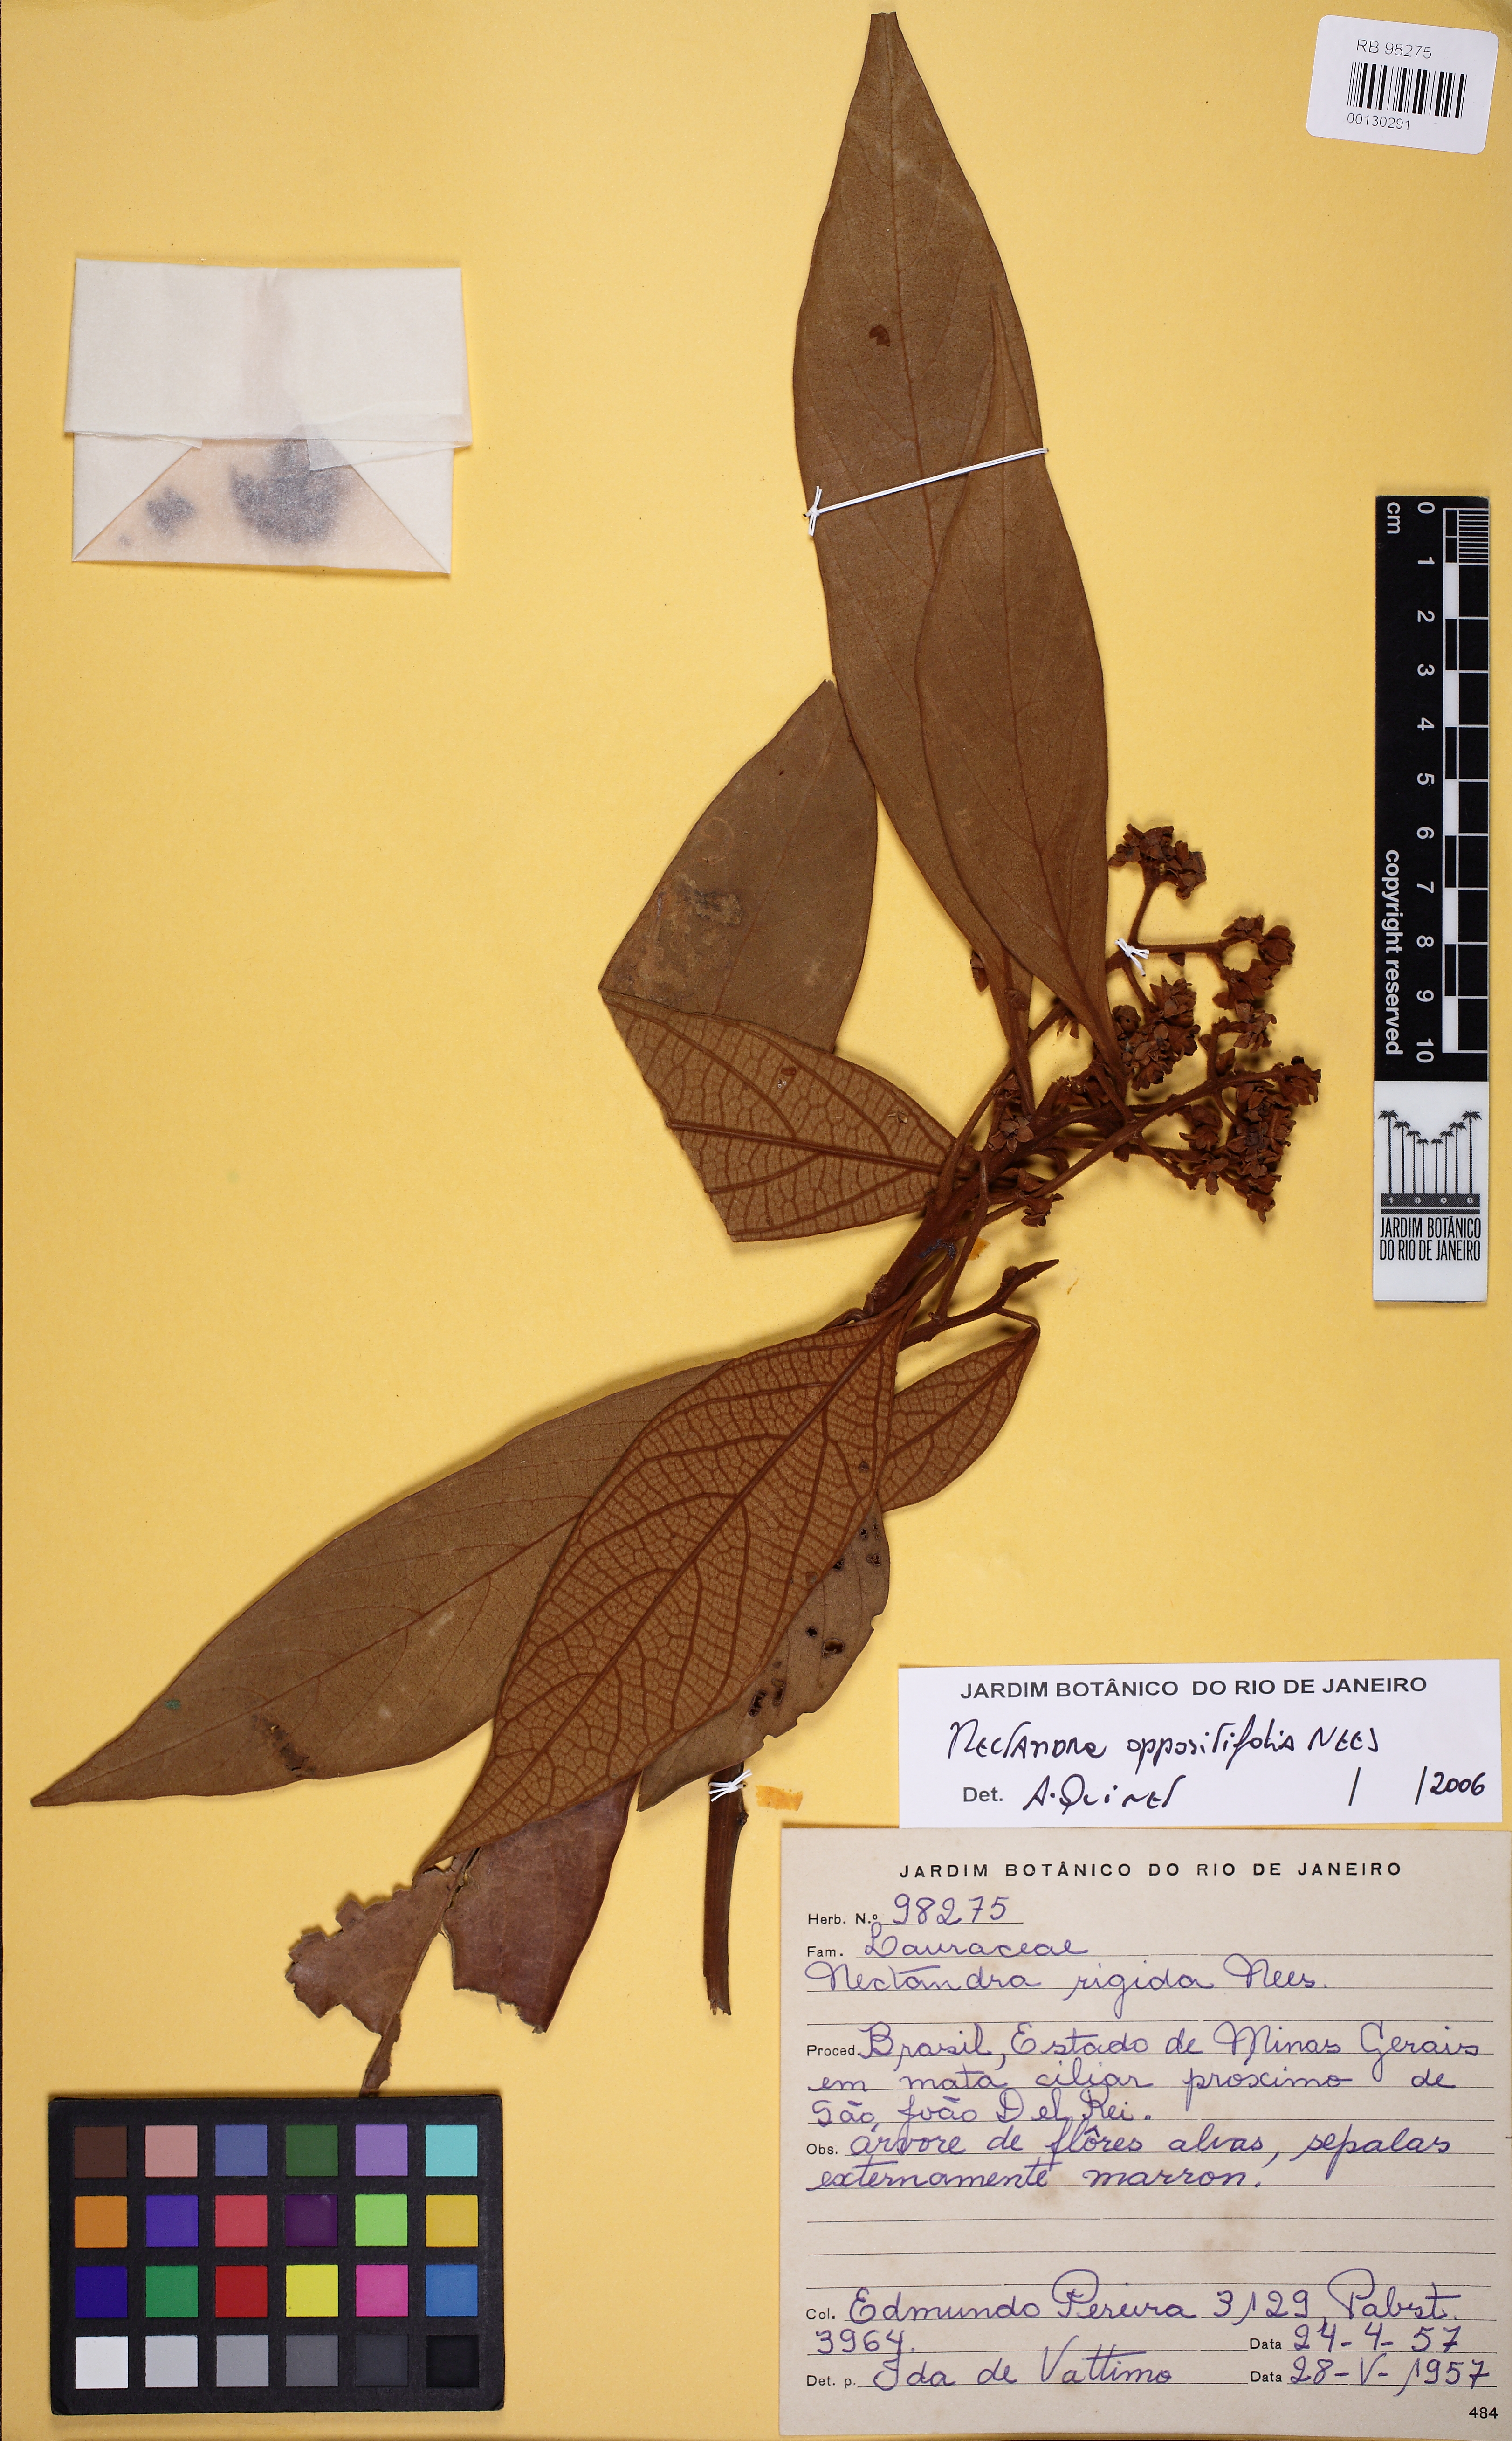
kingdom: Plantae
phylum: Tracheophyta
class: Magnoliopsida
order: Laurales
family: Lauraceae
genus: Nectandra
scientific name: Nectandra oppositifolia
